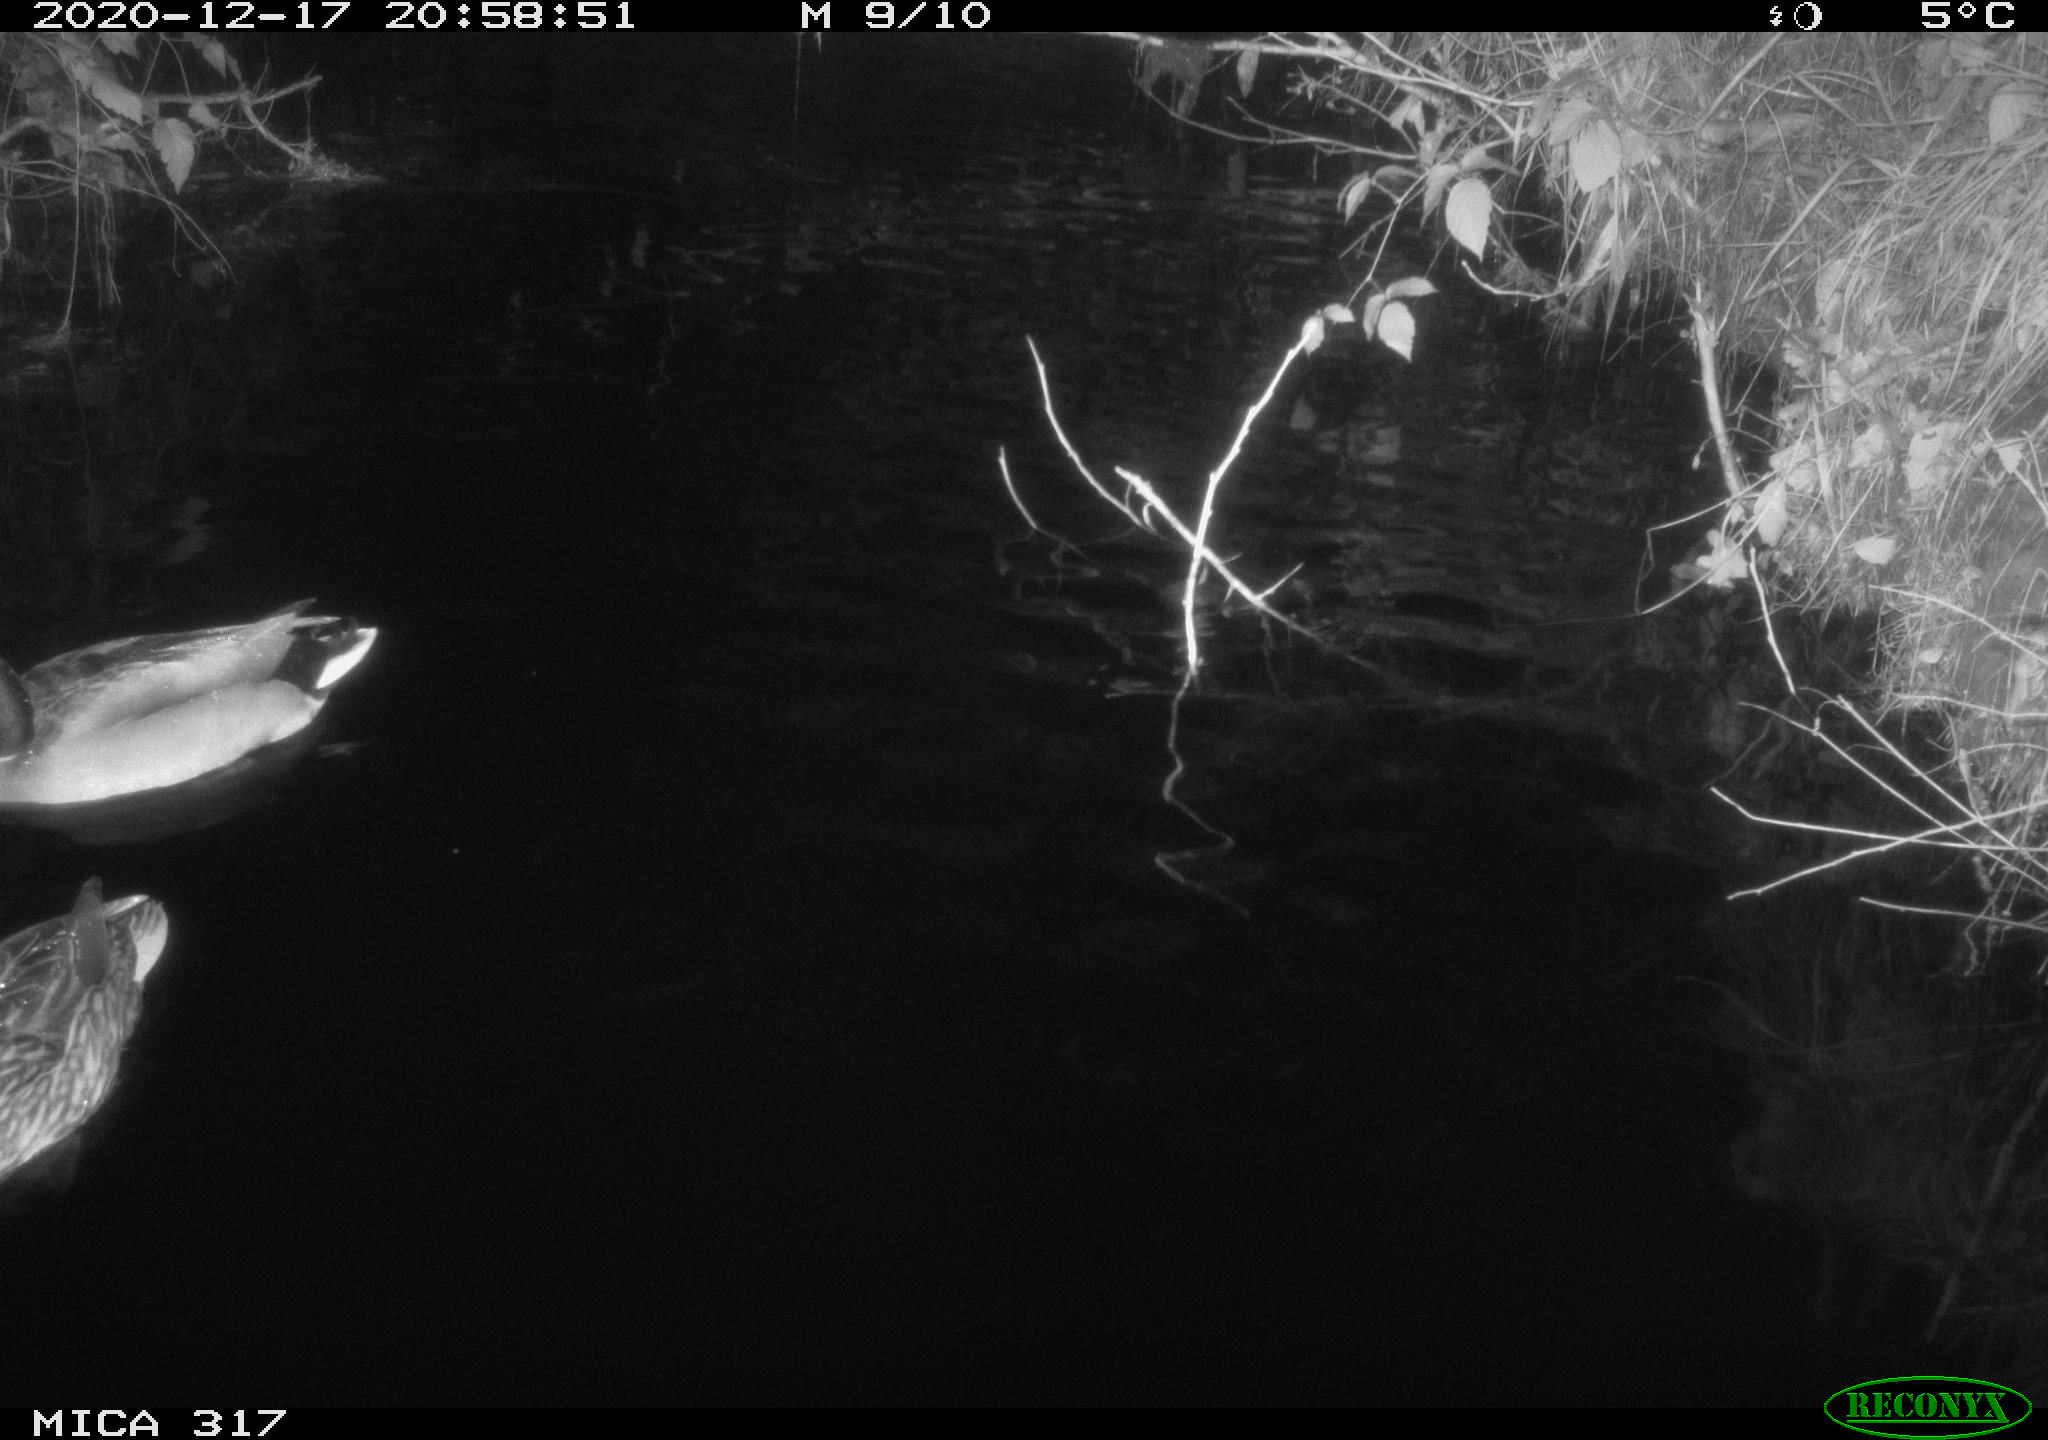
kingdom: Animalia
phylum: Chordata
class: Aves
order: Anseriformes
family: Anatidae
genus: Anas
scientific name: Anas platyrhynchos
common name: Mallard
